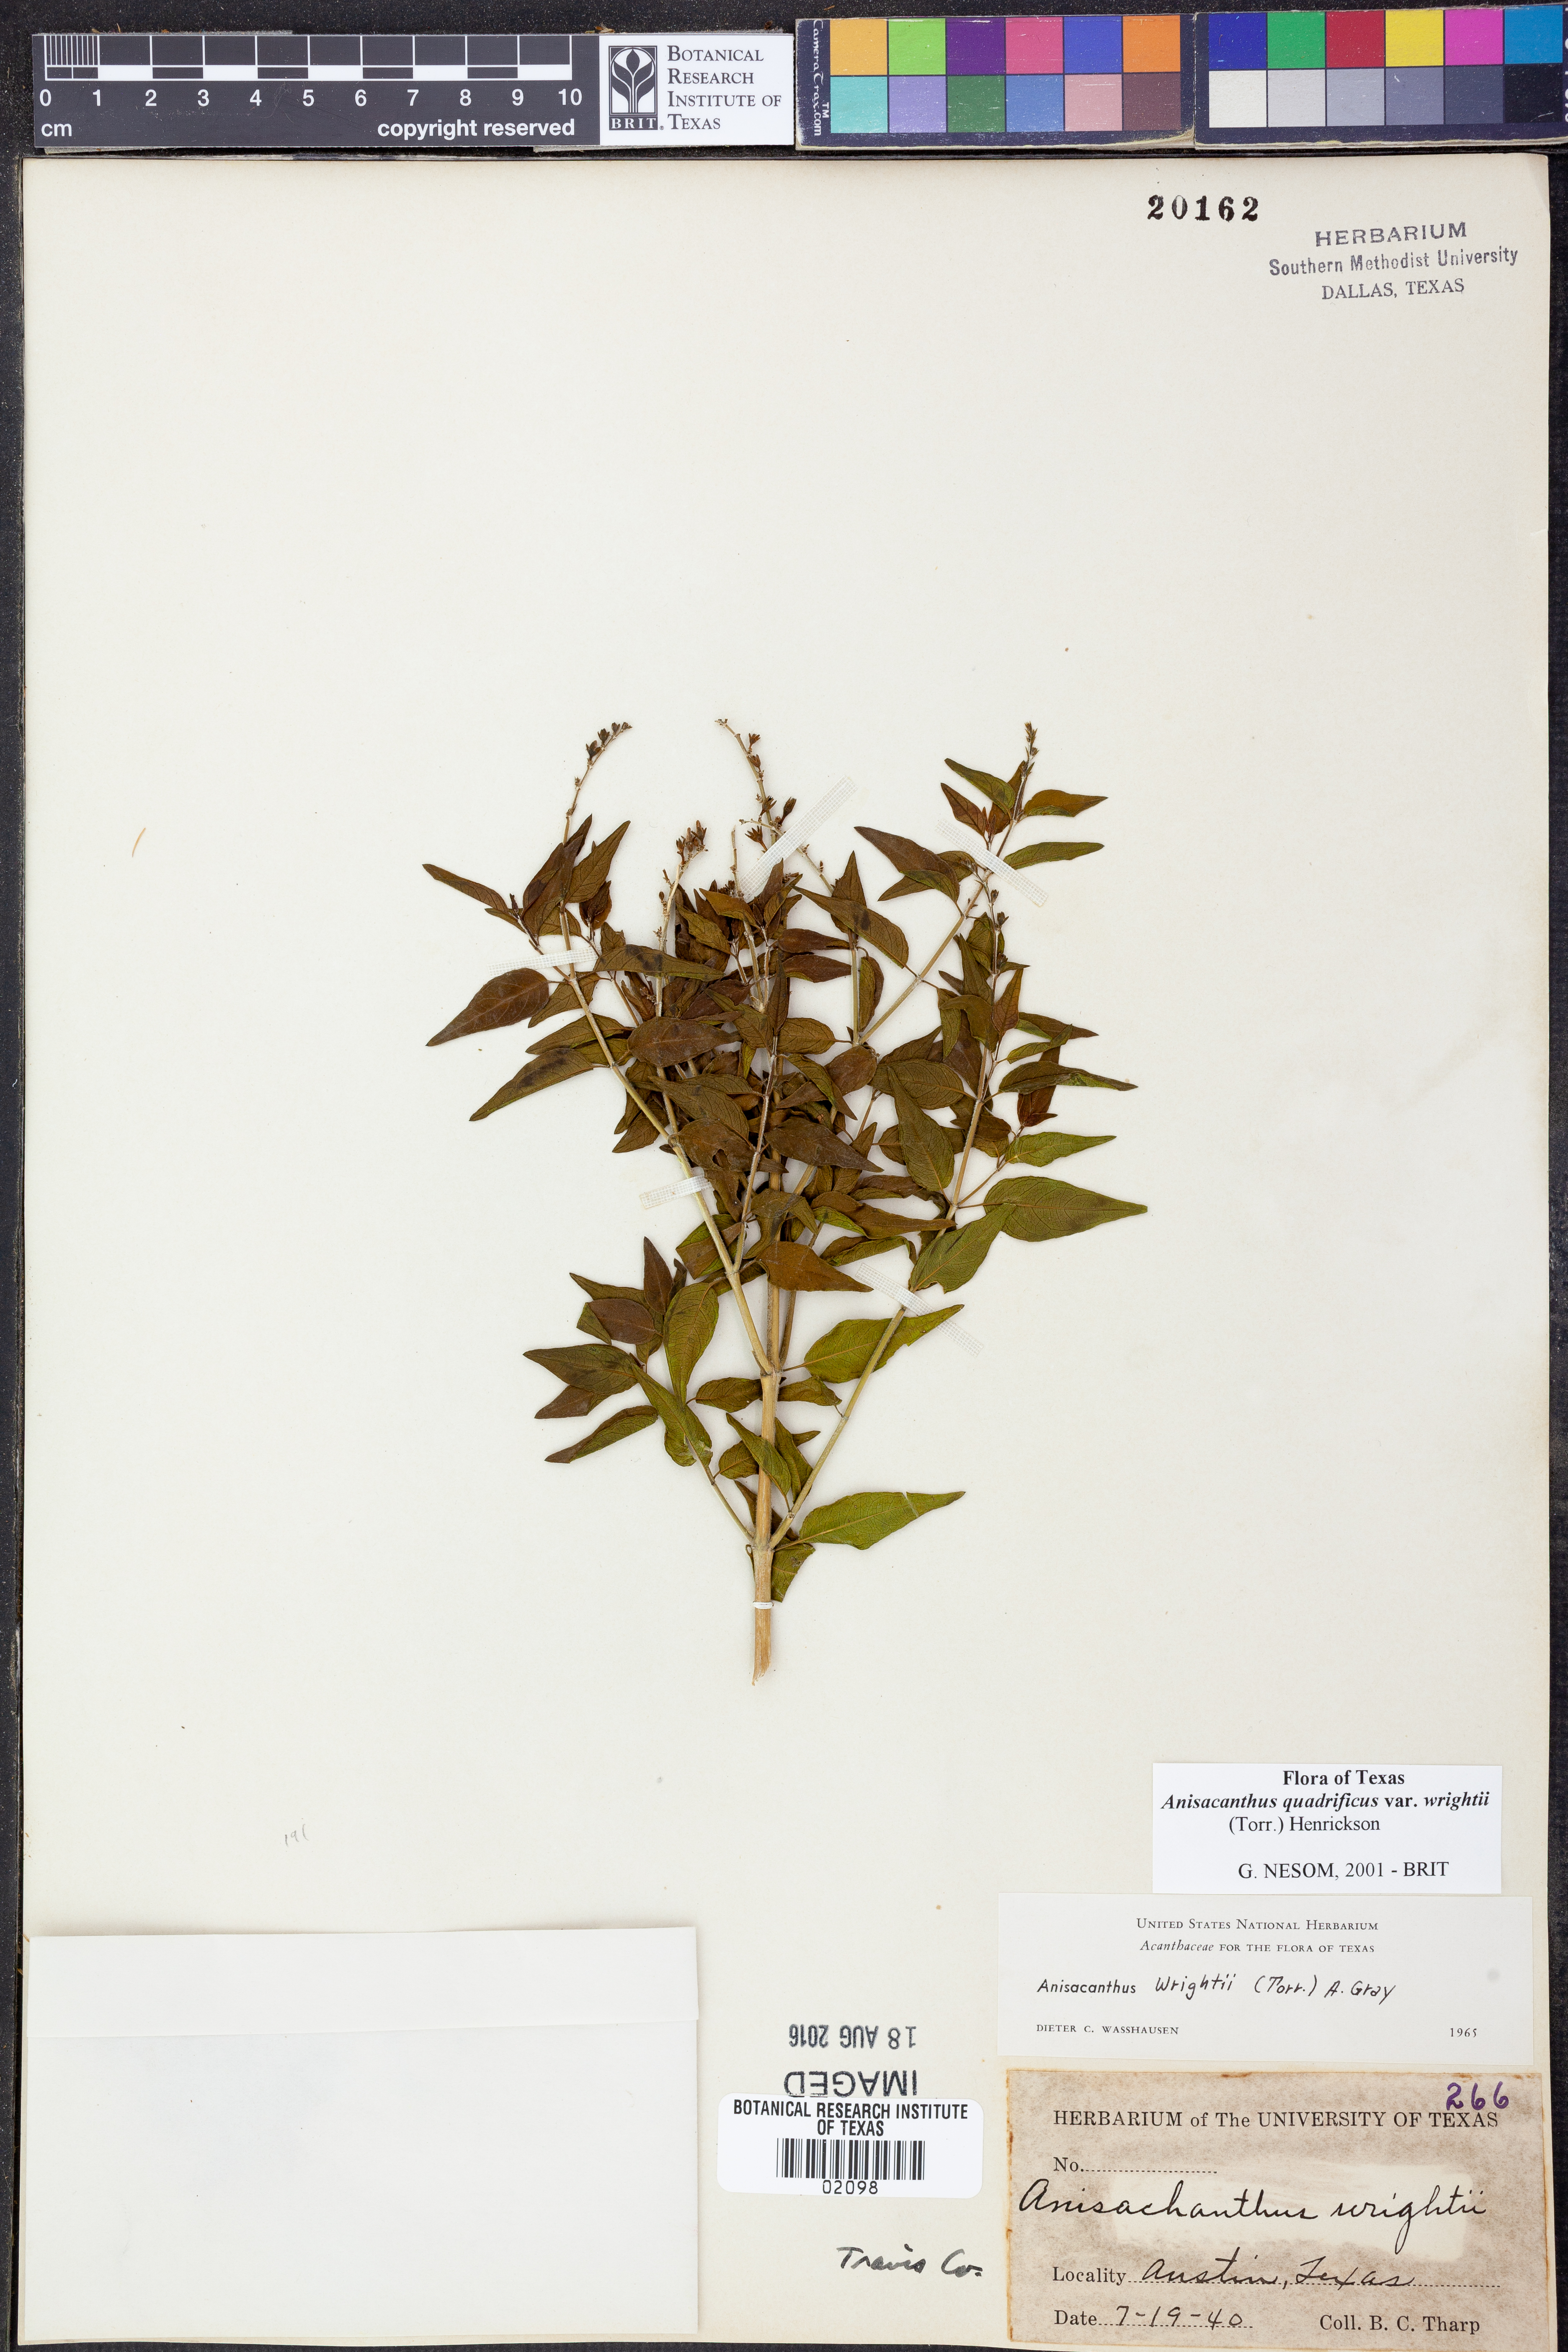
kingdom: Plantae
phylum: Tracheophyta
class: Magnoliopsida
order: Lamiales
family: Acanthaceae
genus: Anisacanthus
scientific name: Anisacanthus quadrifidus
